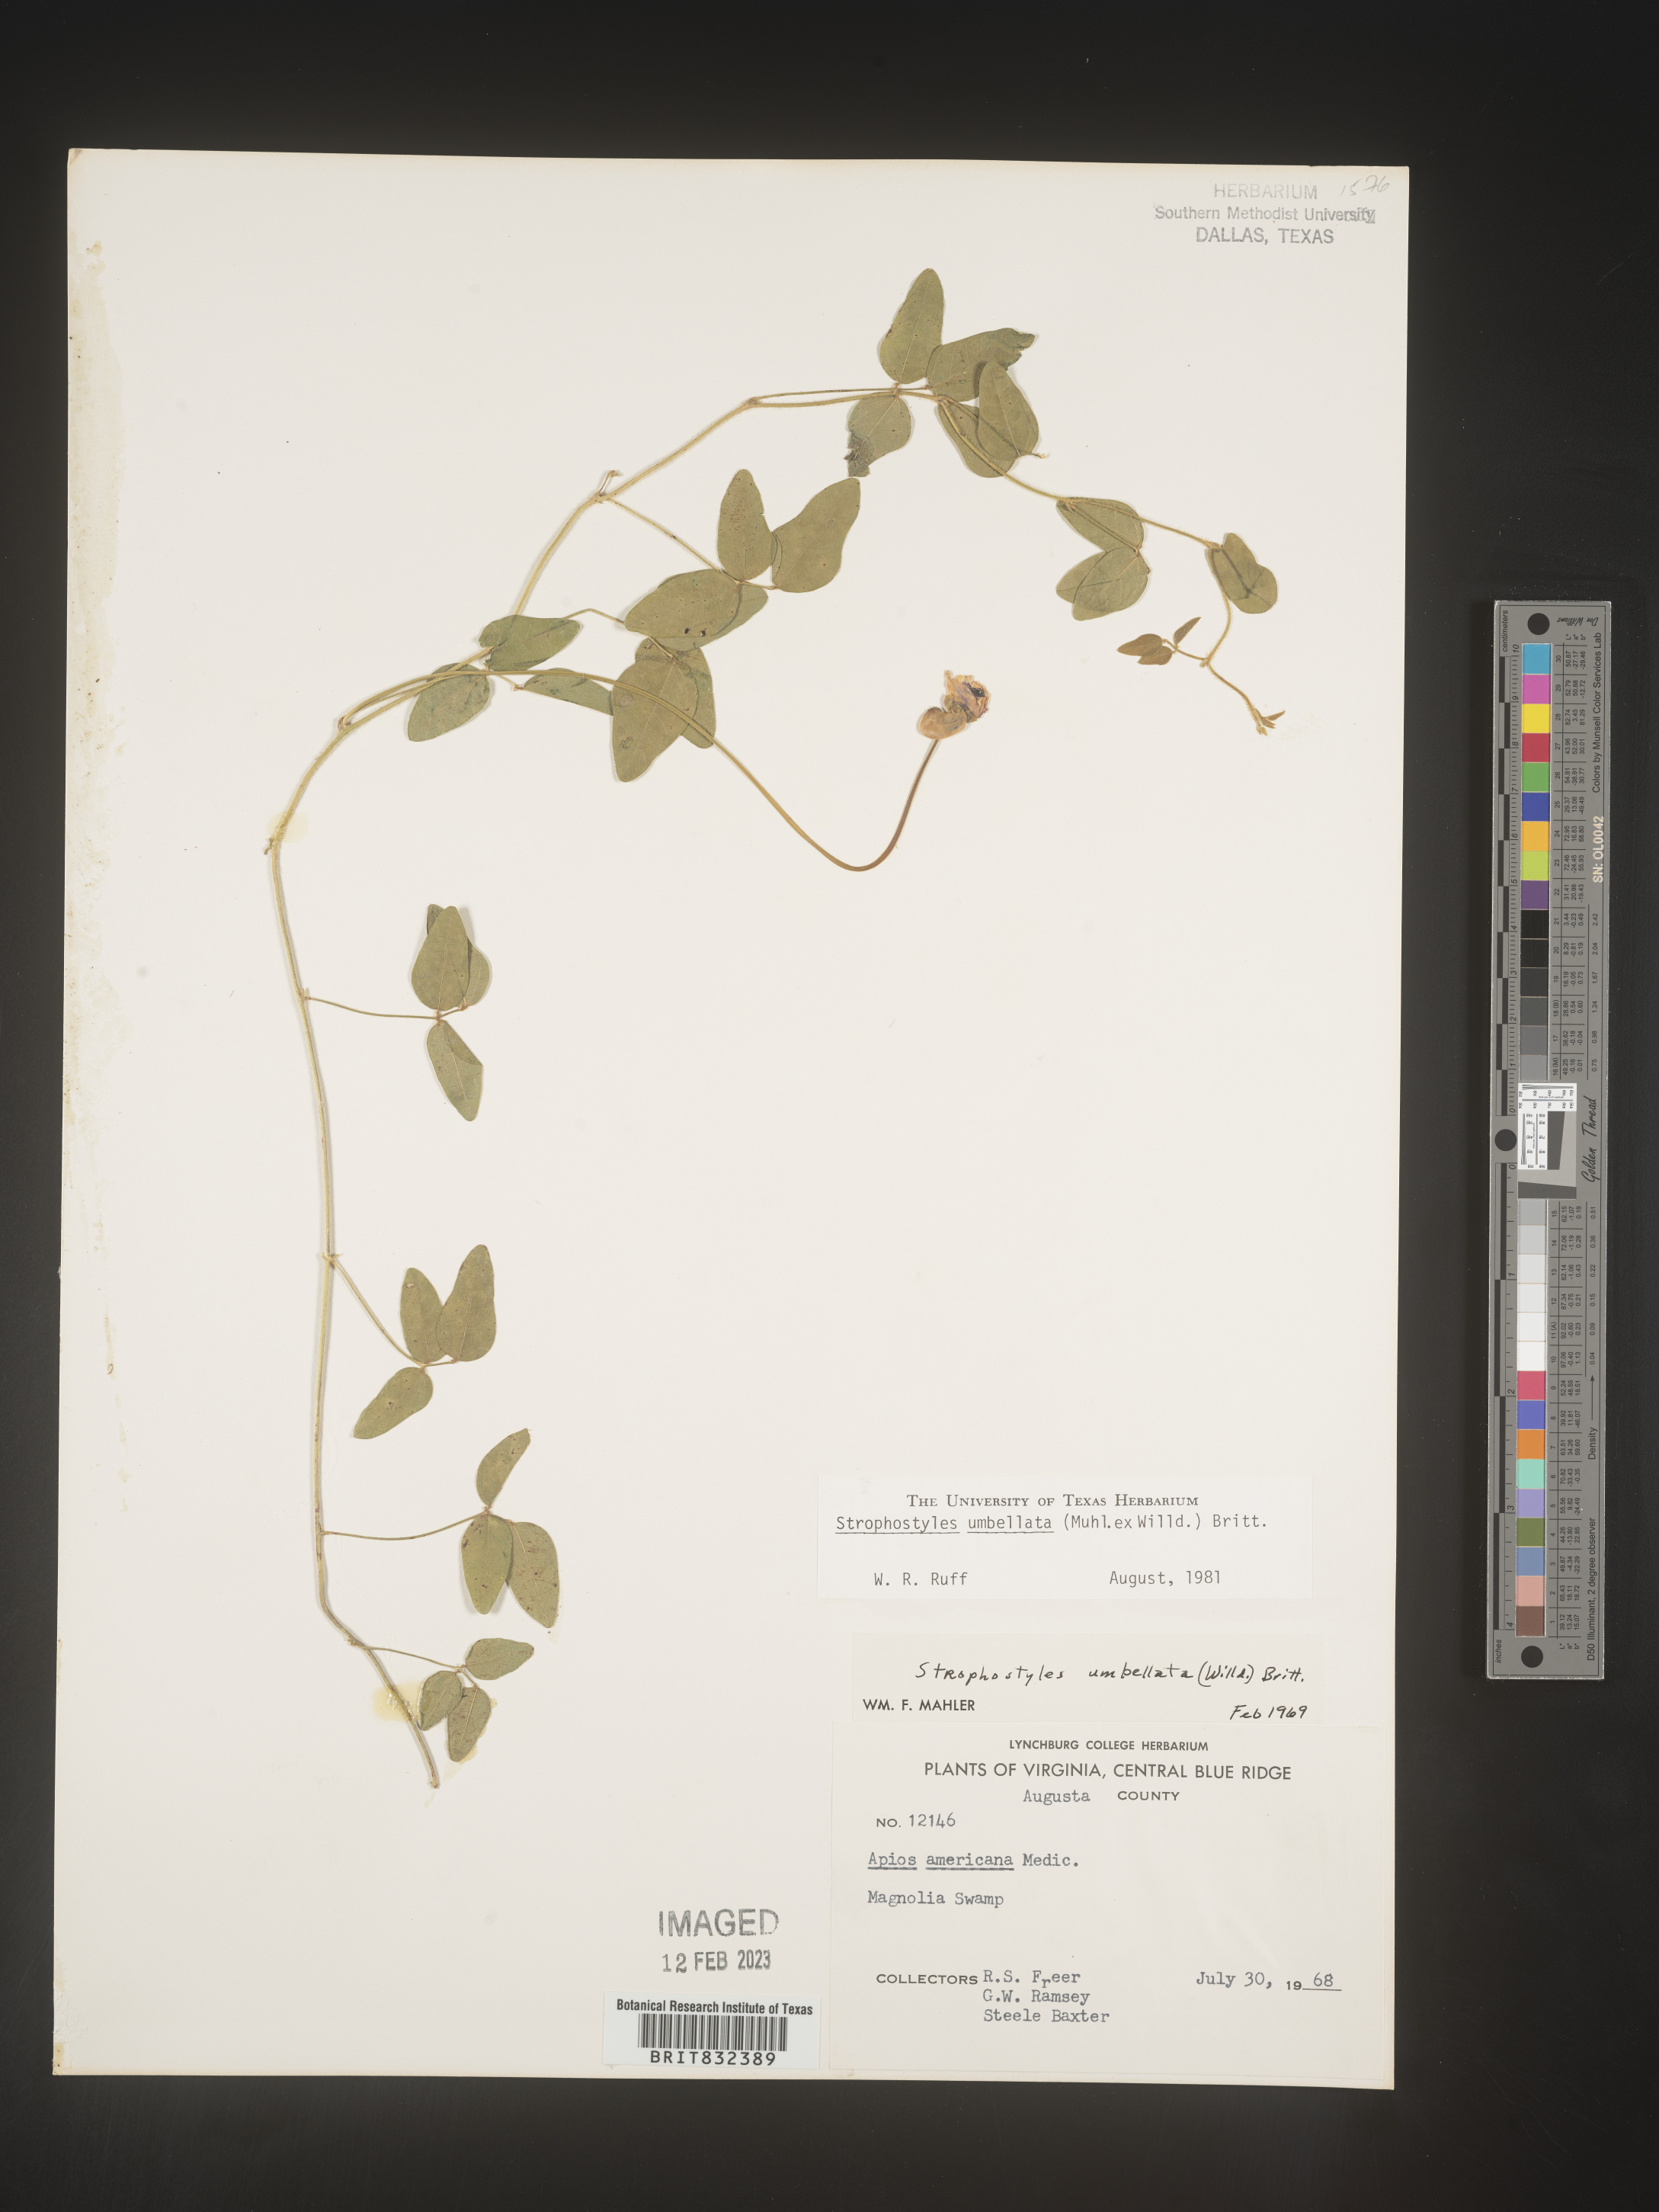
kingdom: Plantae
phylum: Tracheophyta
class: Magnoliopsida
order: Fabales
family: Fabaceae
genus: Strophostyles
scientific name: Strophostyles umbellata
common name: Perennial wild bean
